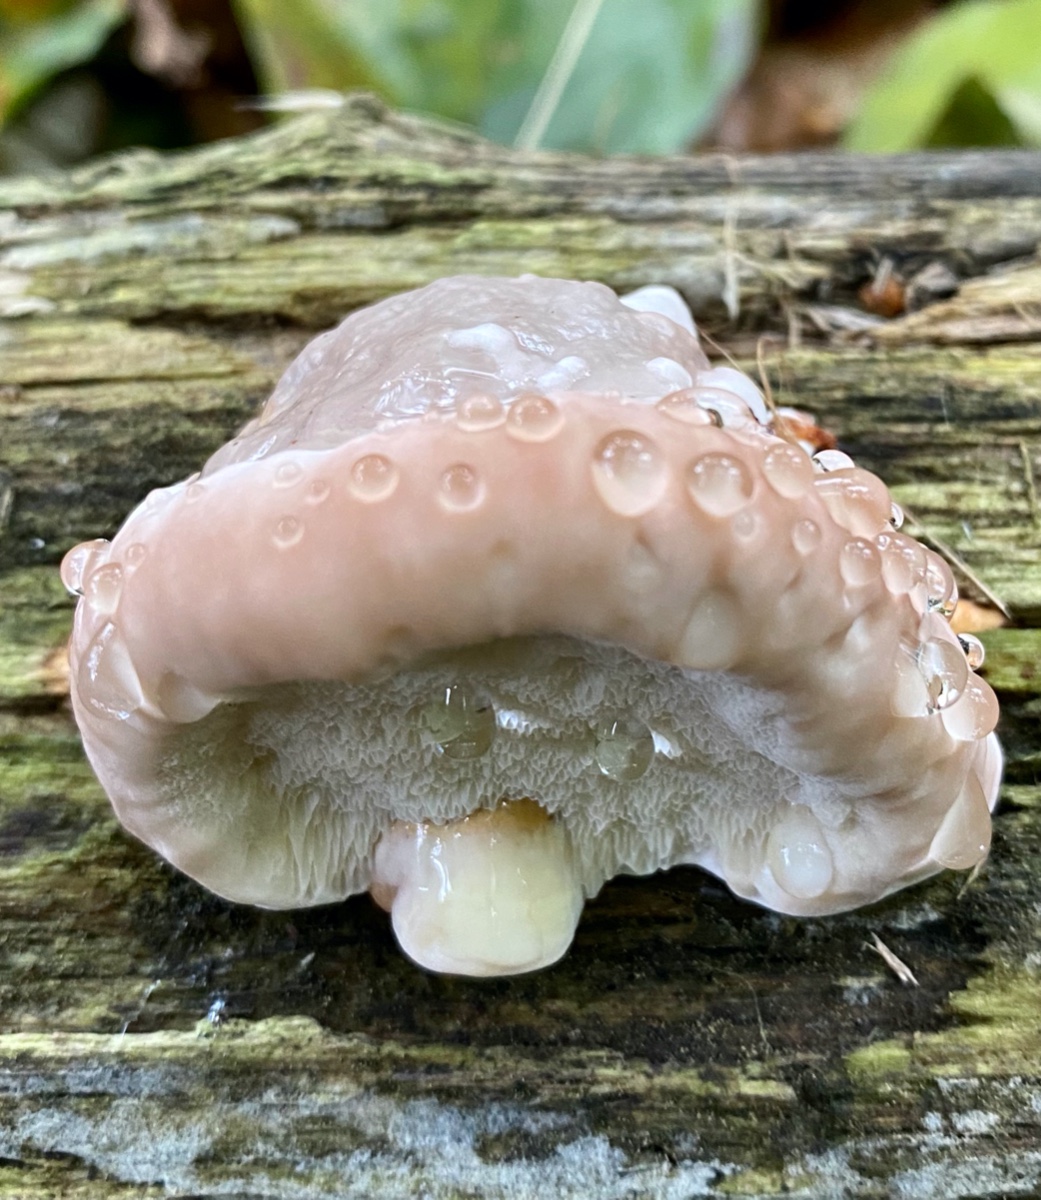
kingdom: Fungi
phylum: Basidiomycota
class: Agaricomycetes
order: Polyporales
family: Fomitopsidaceae
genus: Fomitopsis
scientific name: Fomitopsis pinicola
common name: randbæltet hovporesvamp
